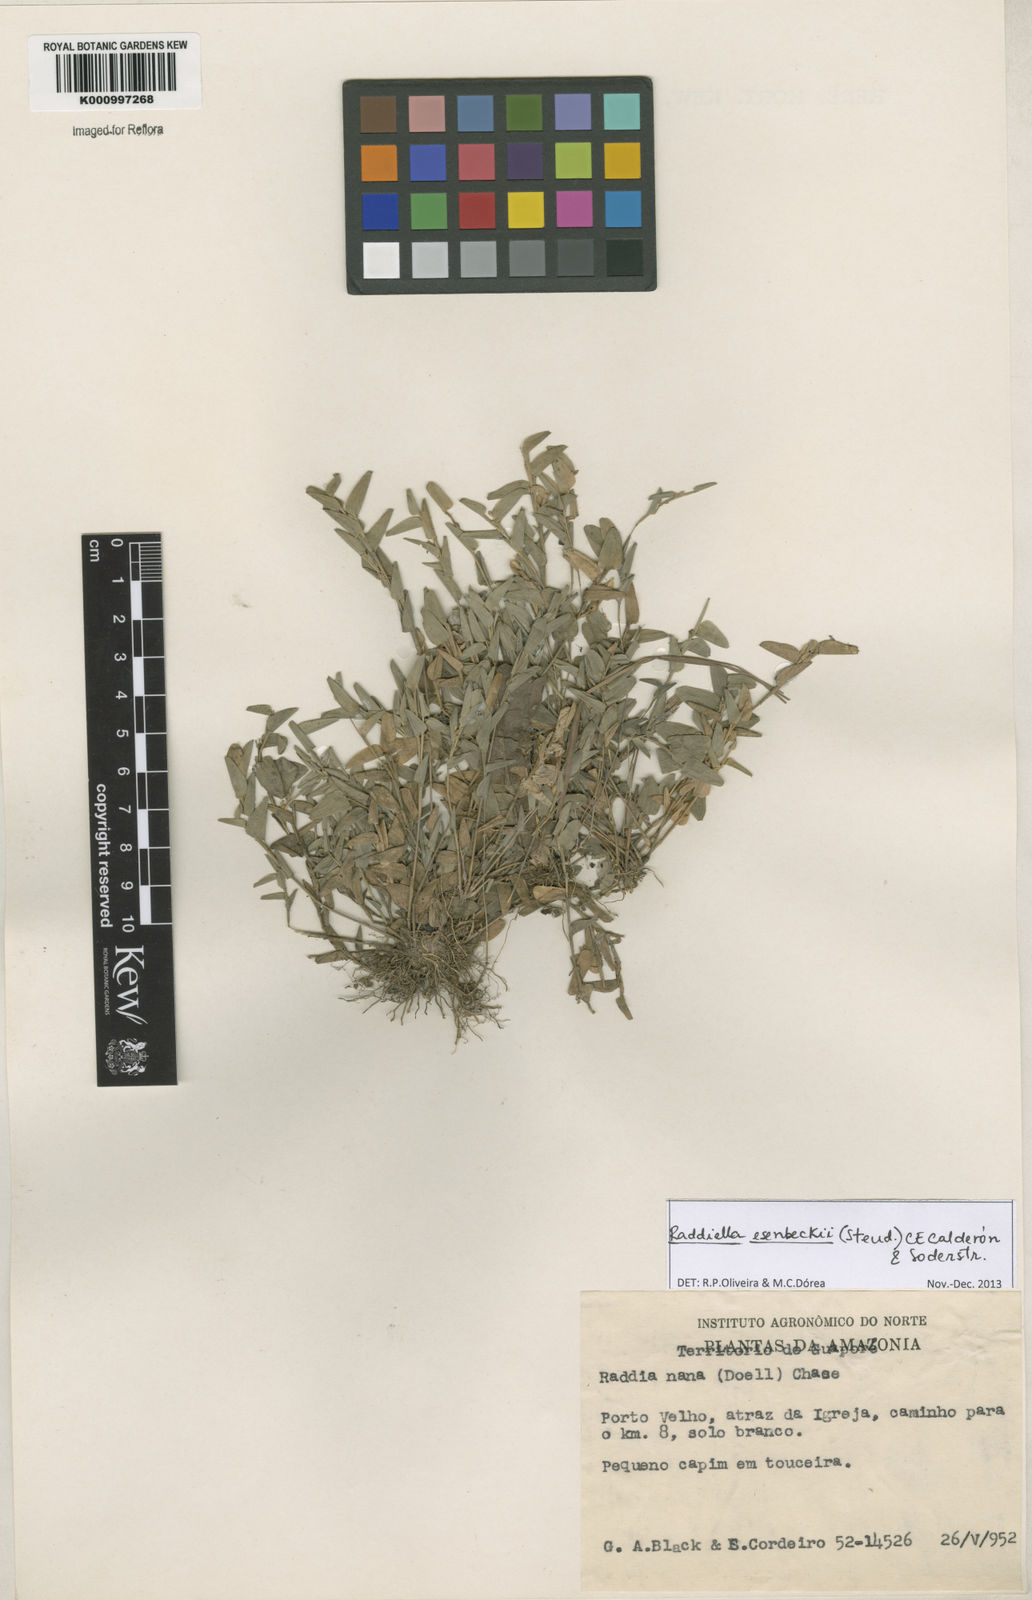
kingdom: Plantae
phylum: Tracheophyta
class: Liliopsida
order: Poales
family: Poaceae
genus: Raddiella
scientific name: Raddiella
